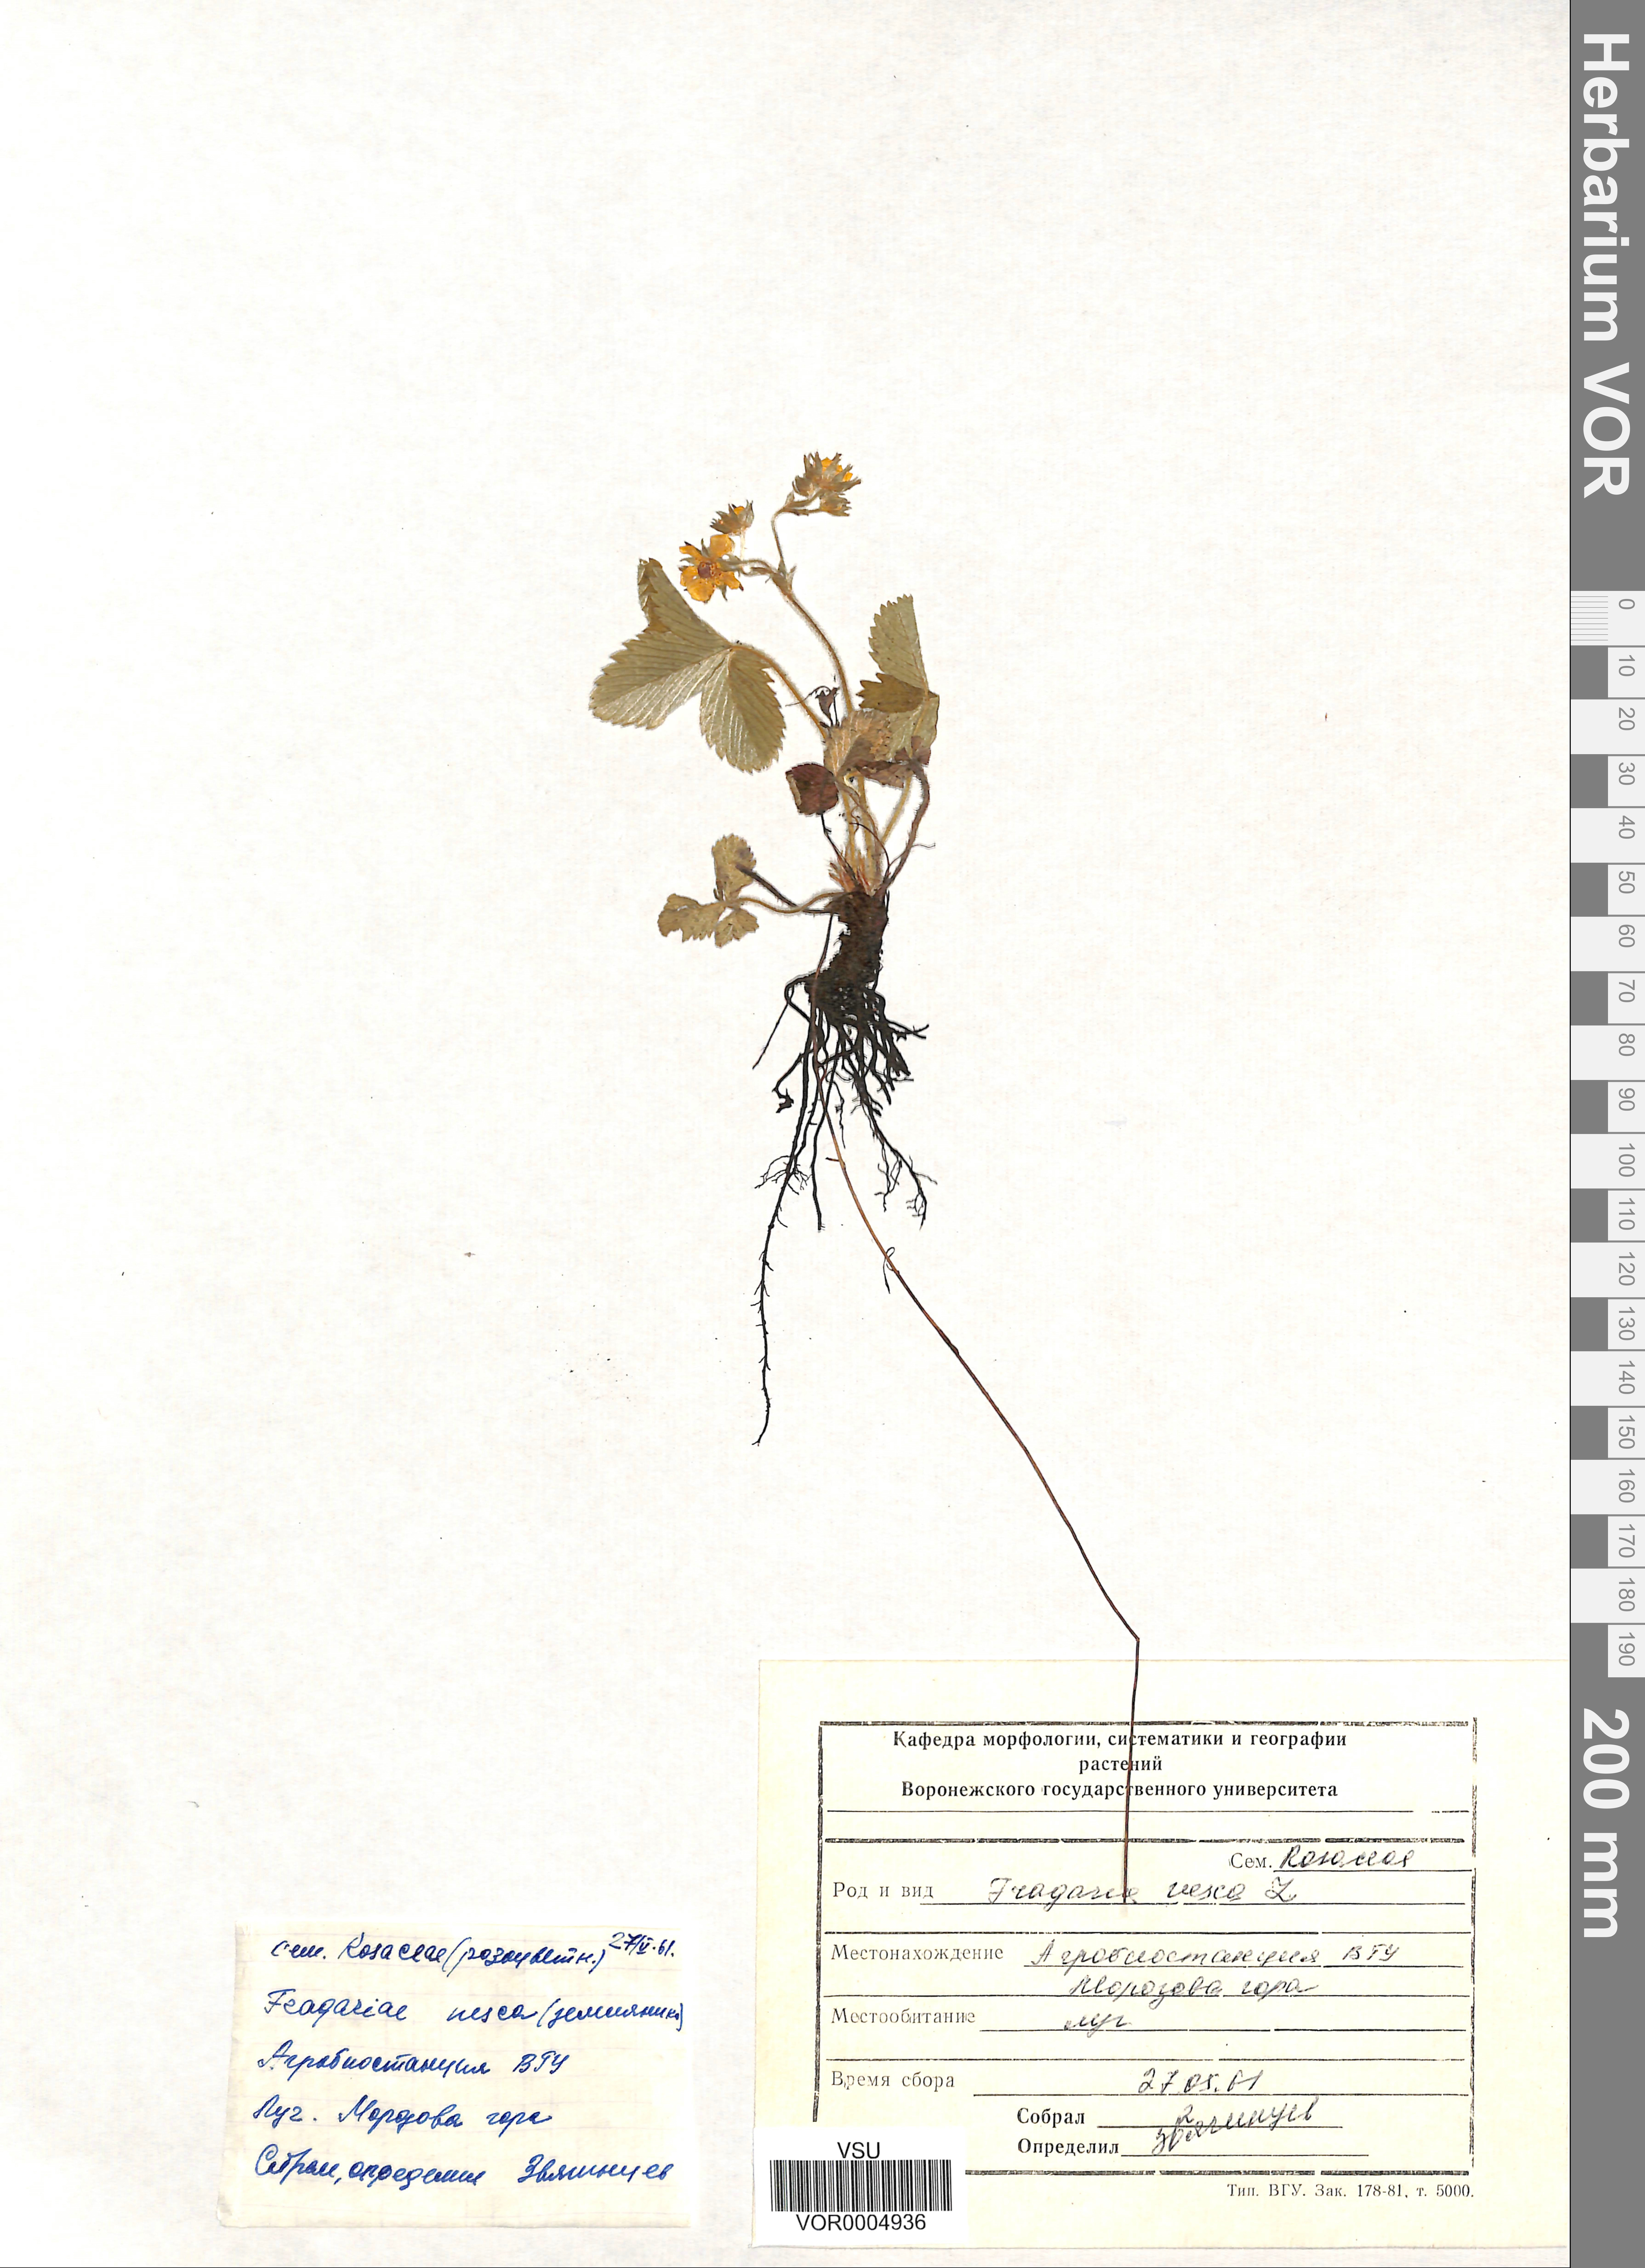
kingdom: Plantae
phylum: Tracheophyta
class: Magnoliopsida
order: Rosales
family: Rosaceae
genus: Fragaria
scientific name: Fragaria vesca
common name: Wild strawberry
